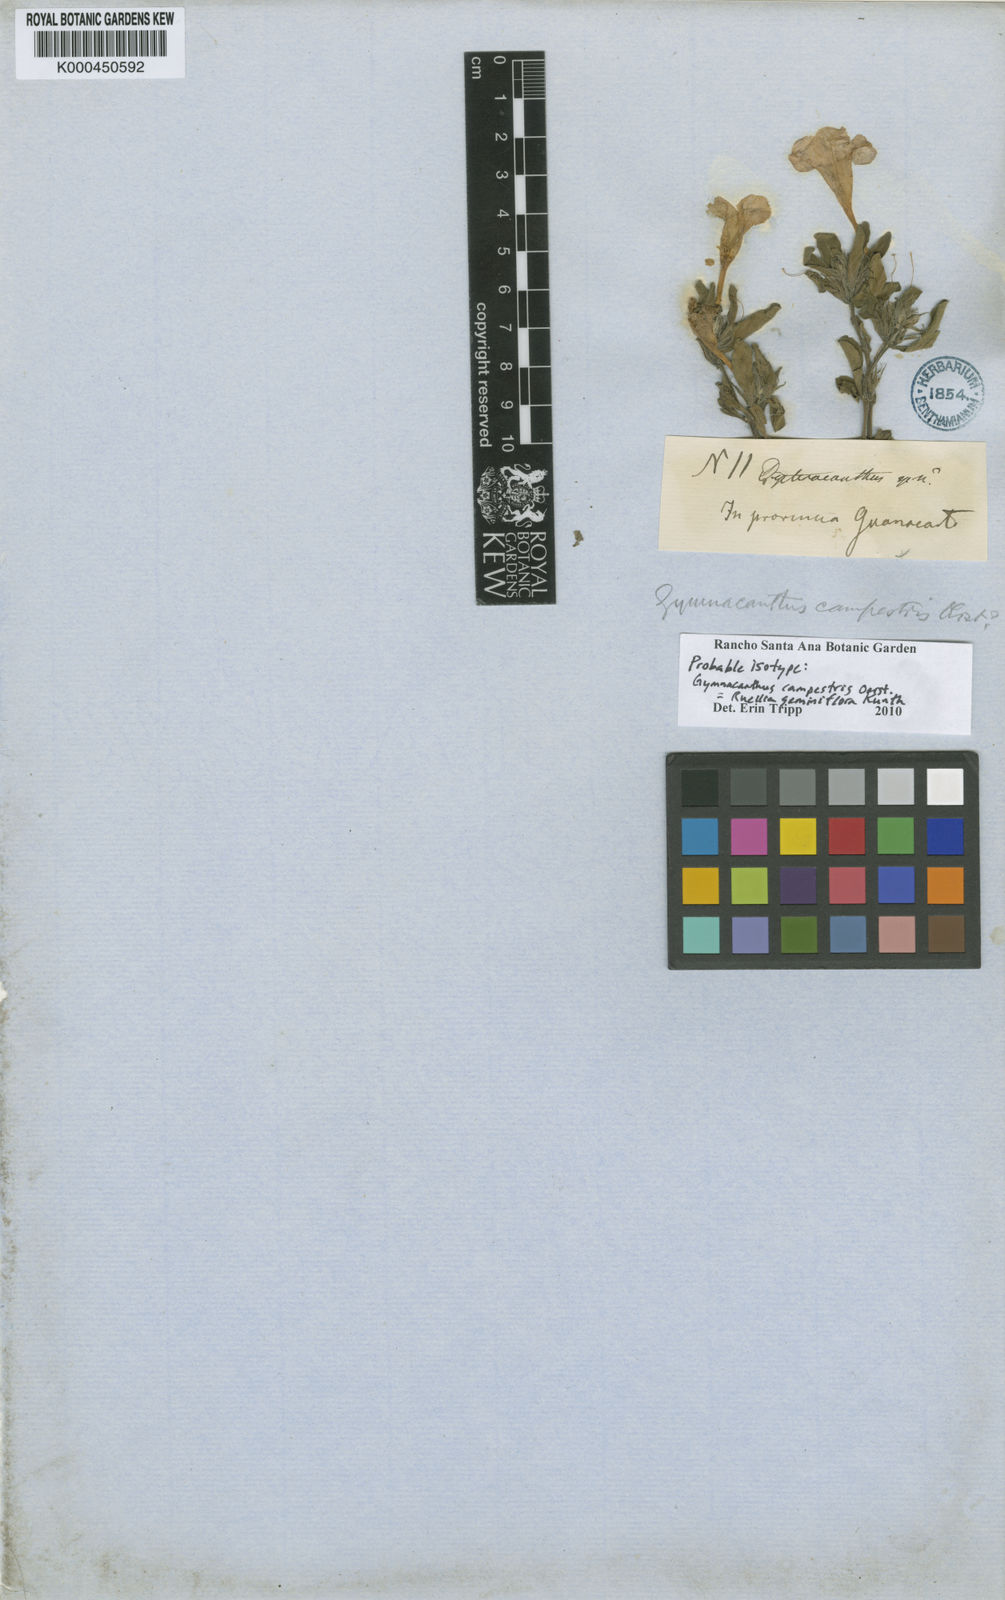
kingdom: Plantae
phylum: Tracheophyta
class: Magnoliopsida
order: Lamiales
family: Acanthaceae
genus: Ruellia
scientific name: Ruellia geminiflora
